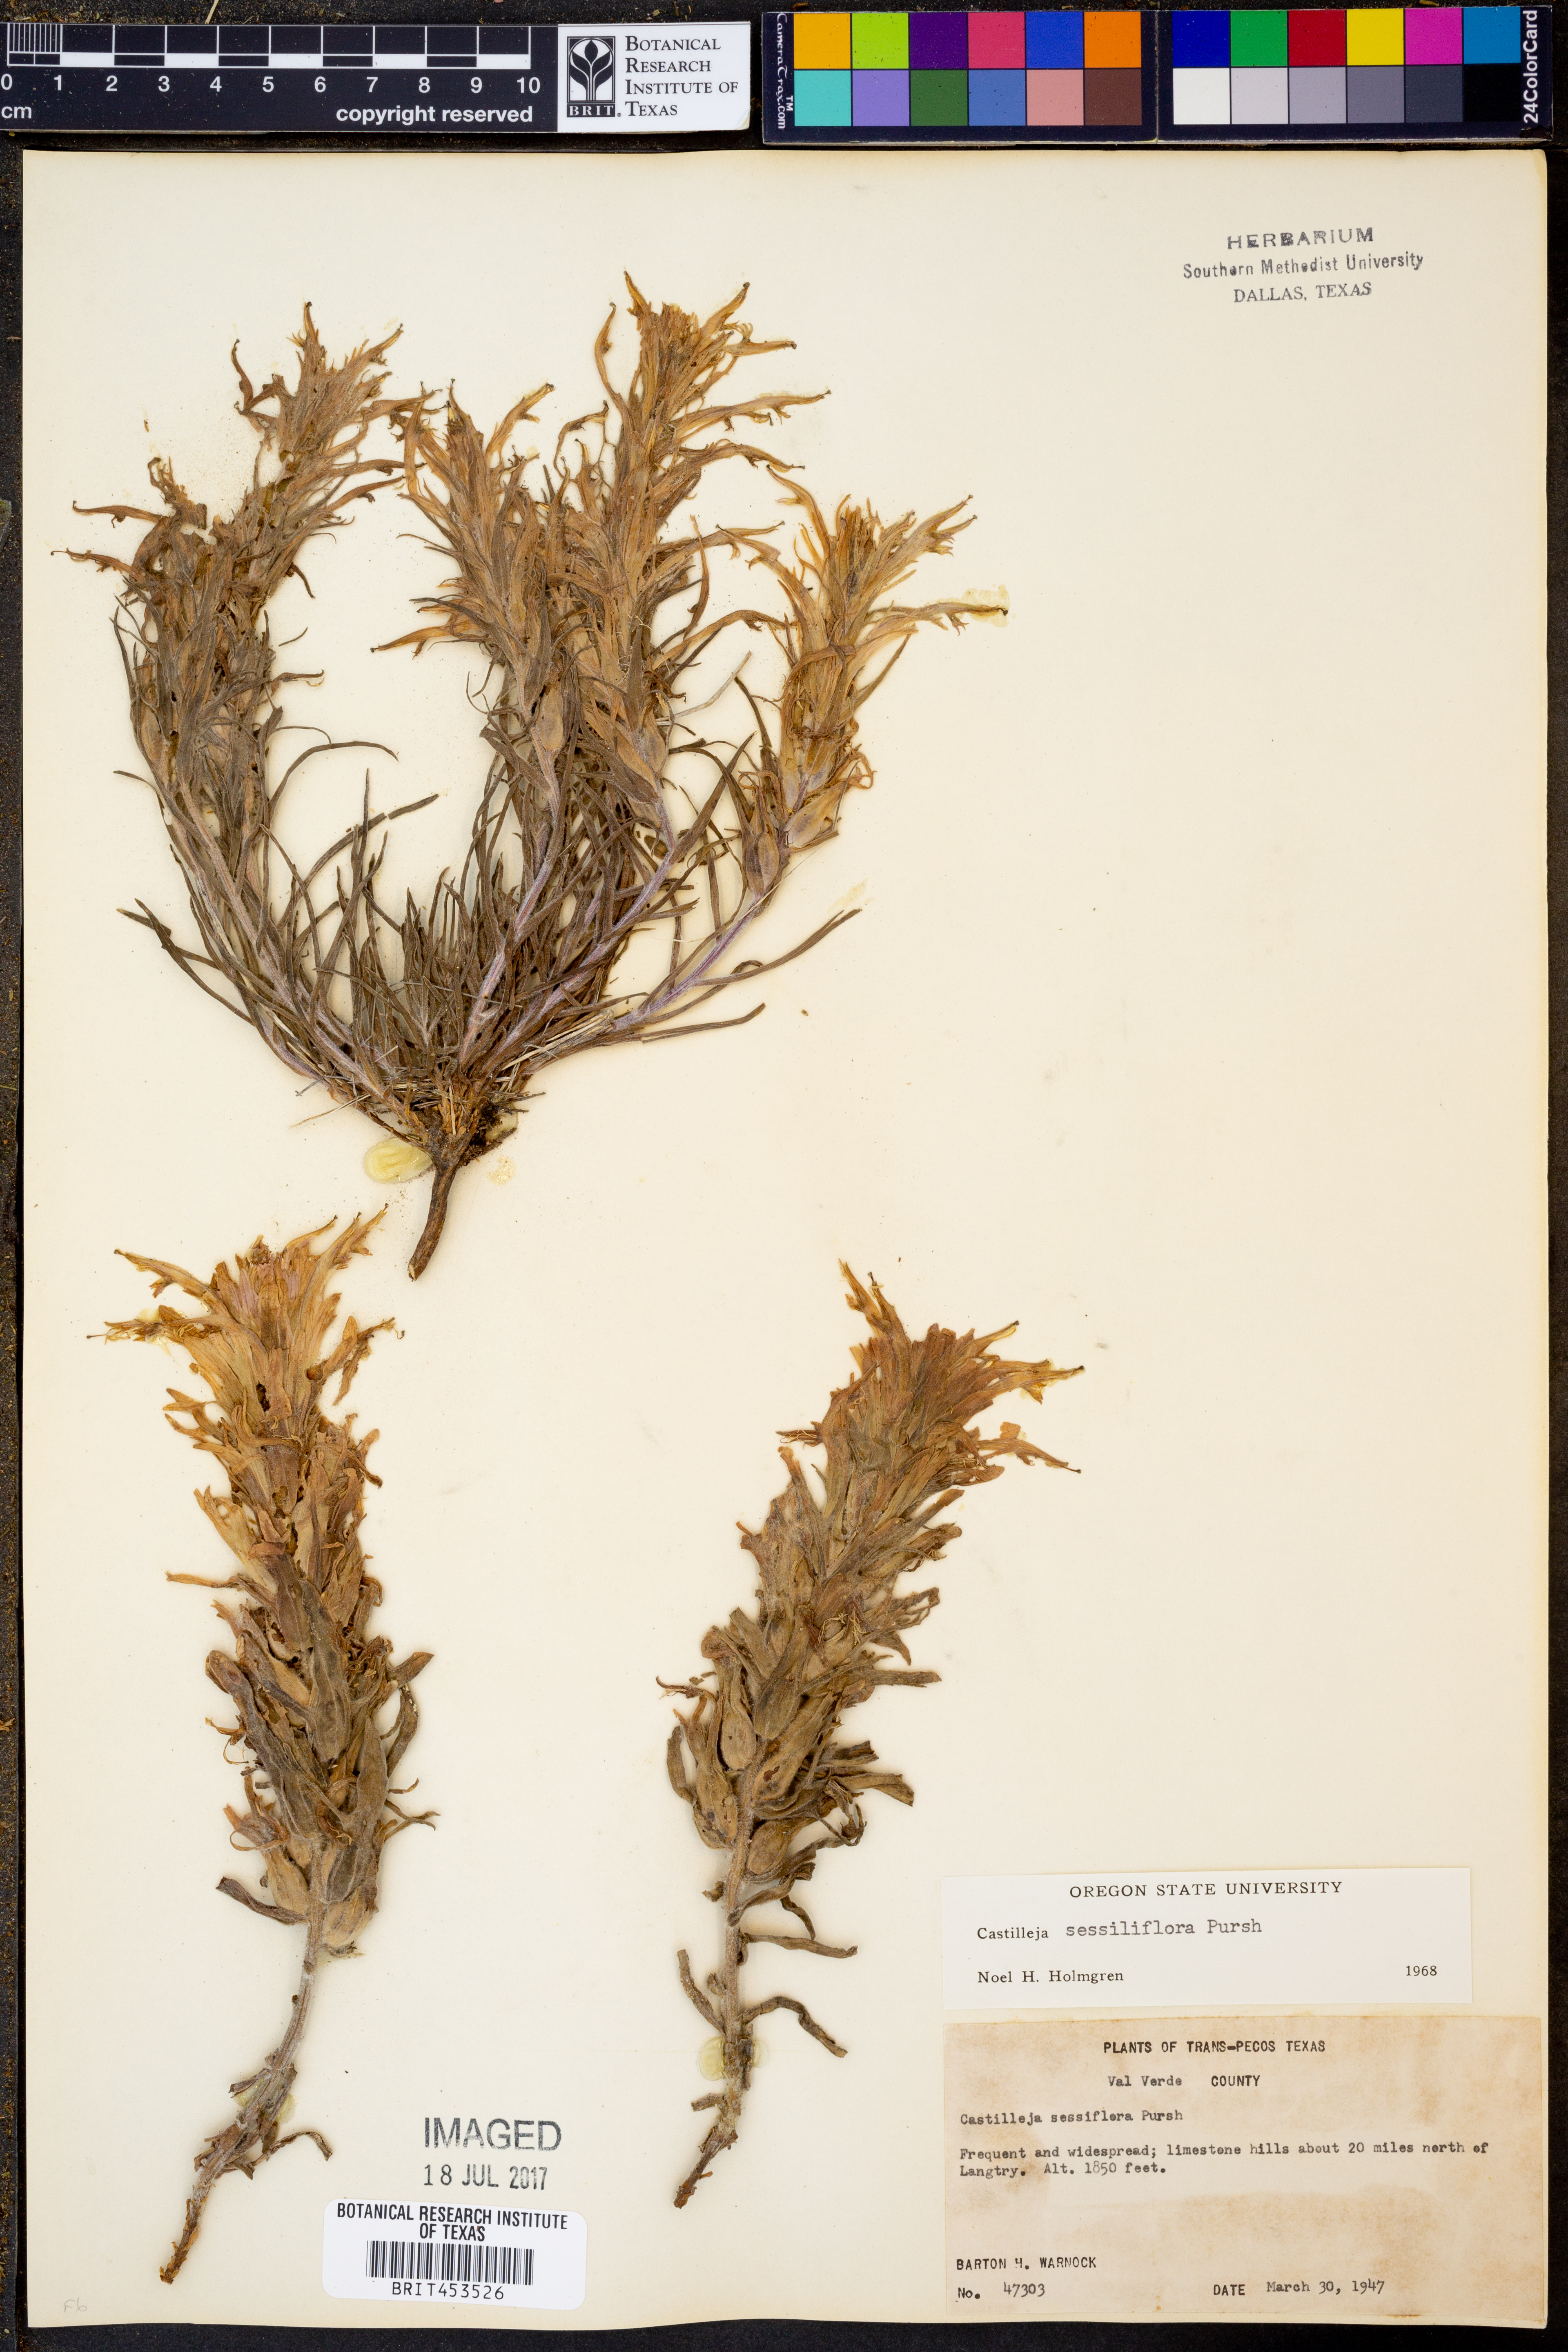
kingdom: Plantae
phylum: Tracheophyta
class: Magnoliopsida
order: Lamiales
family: Orobanchaceae
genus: Castilleja
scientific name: Castilleja sessiliflora
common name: Downy paintbrush
